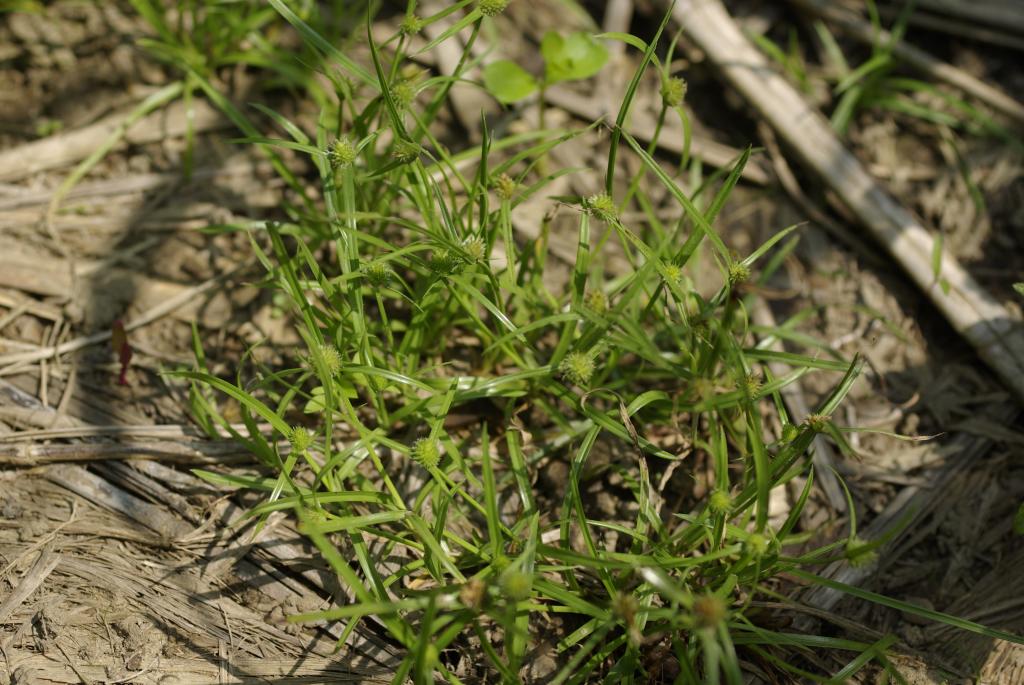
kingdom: Plantae
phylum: Tracheophyta
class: Liliopsida
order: Poales
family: Cyperaceae
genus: Cyperus
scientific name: Cyperus brevifolius
